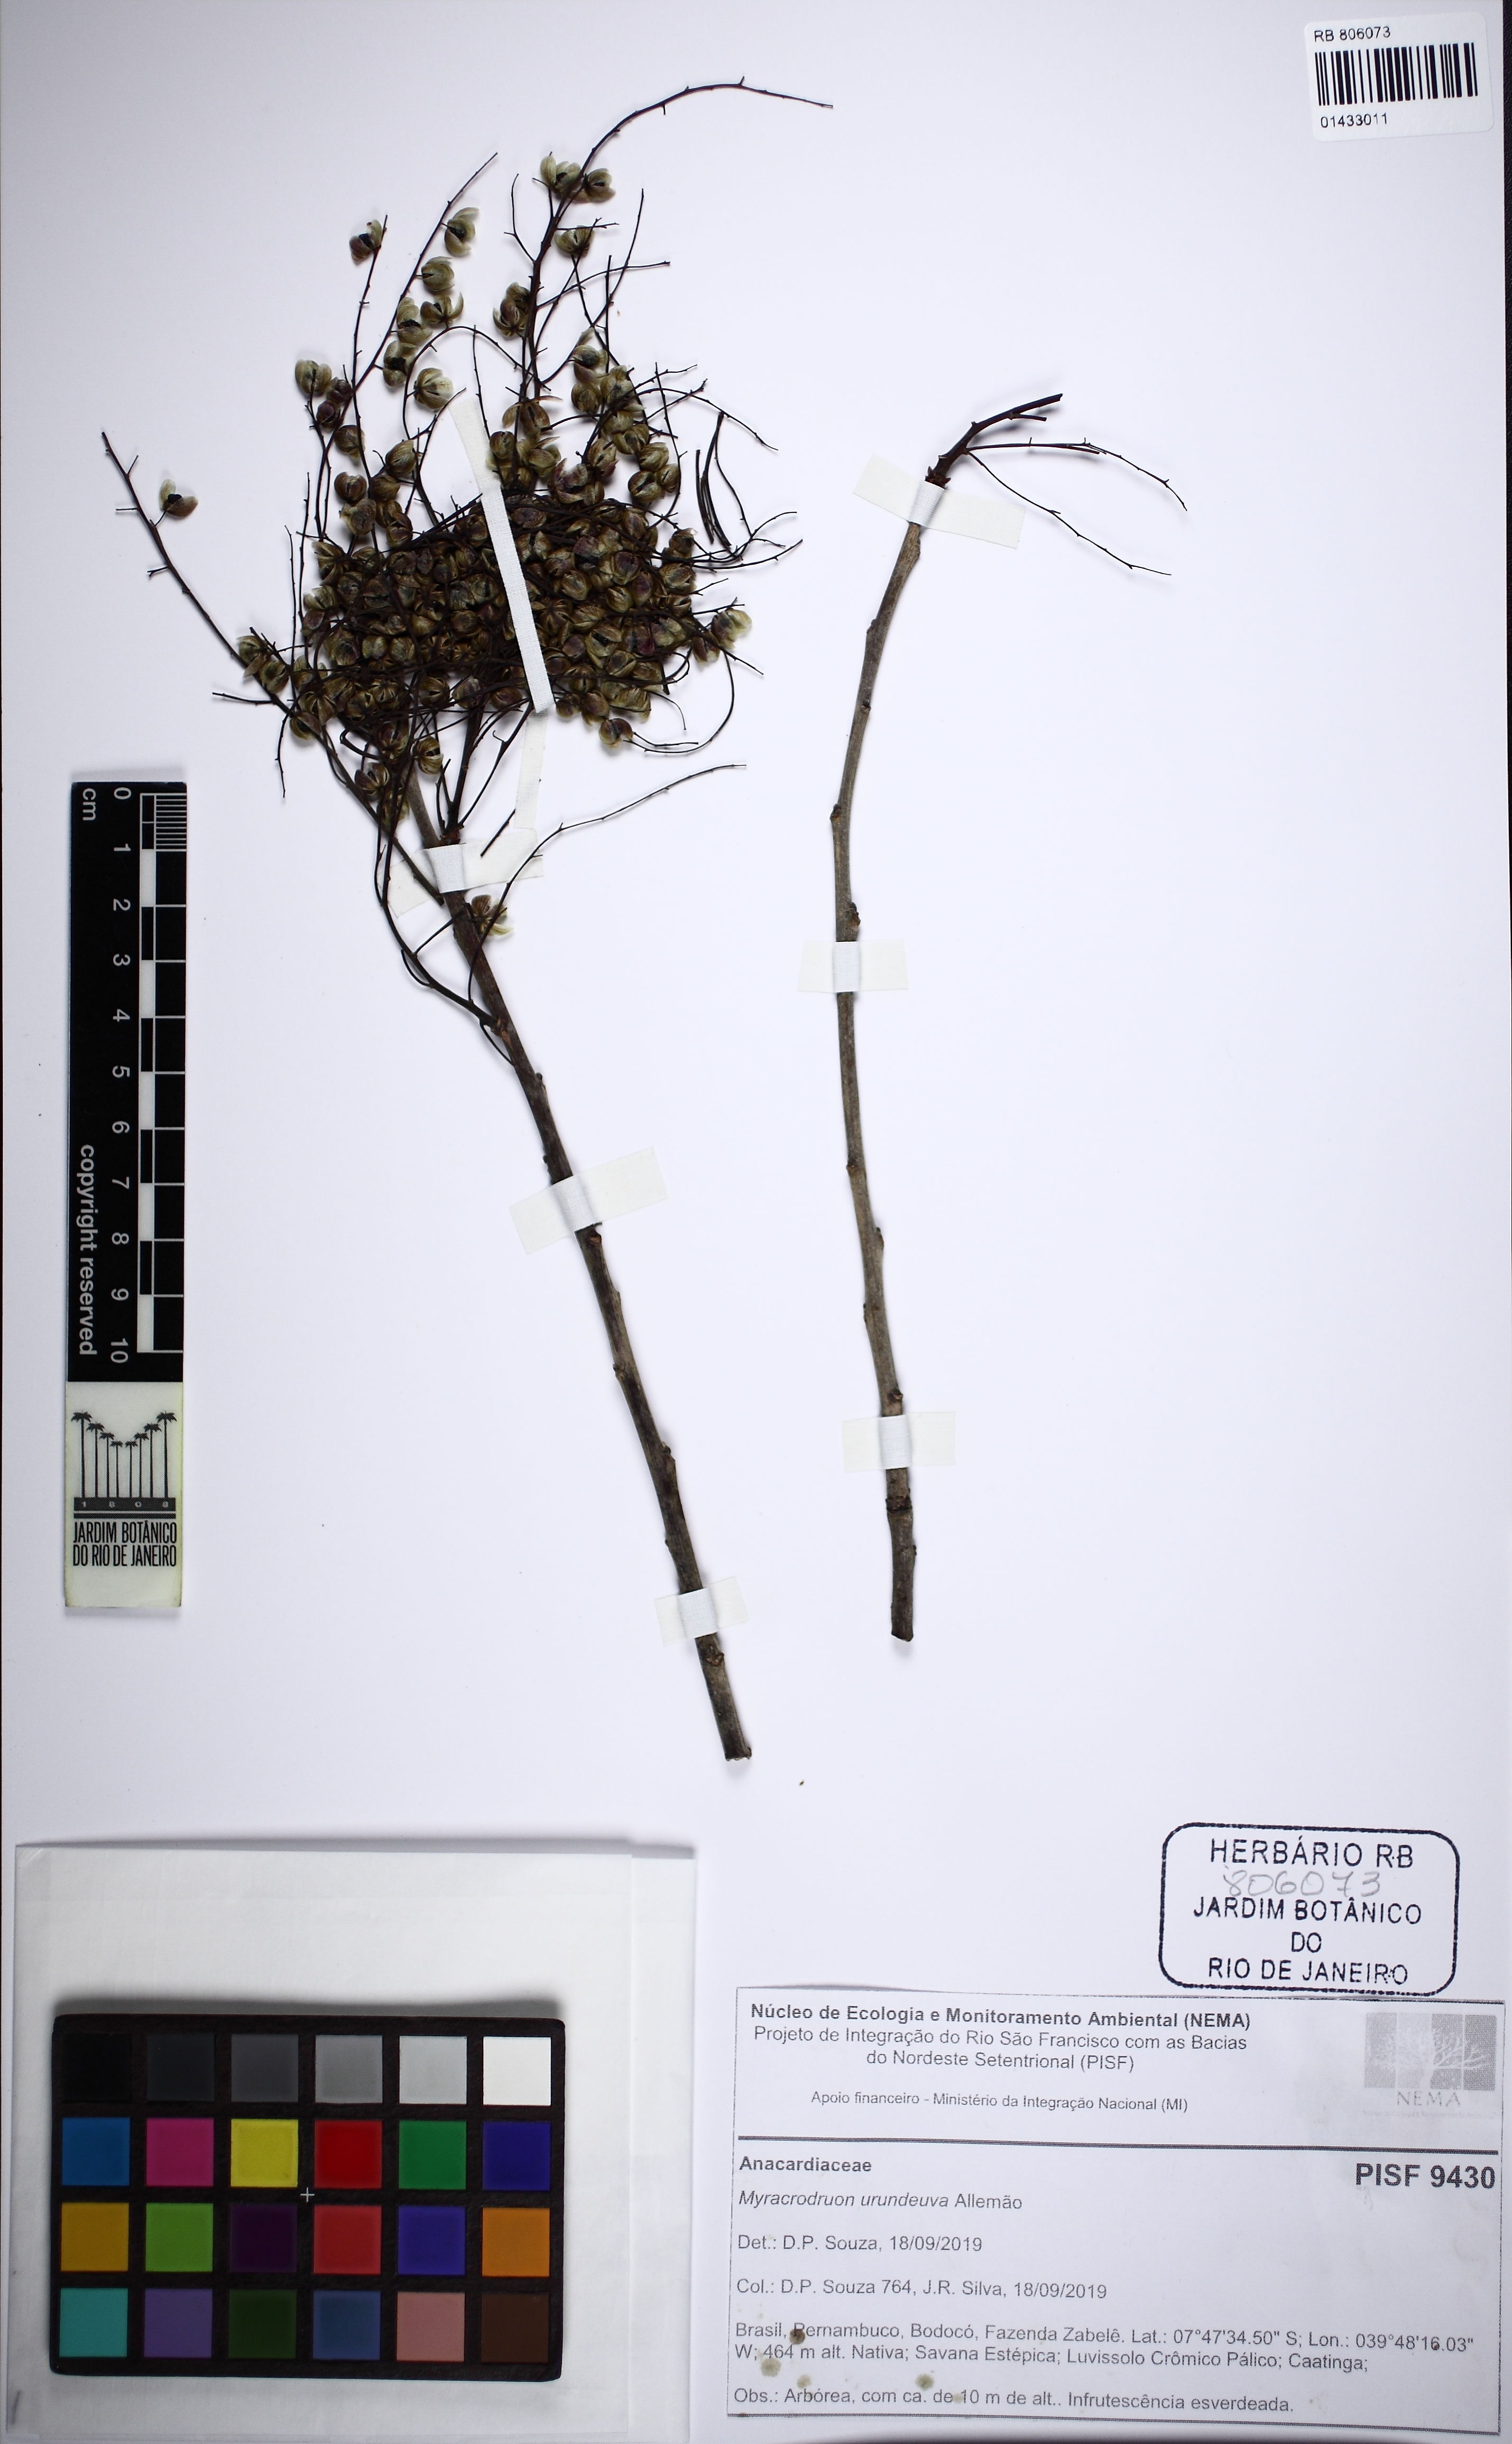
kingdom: Plantae
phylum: Tracheophyta
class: Magnoliopsida
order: Sapindales
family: Anacardiaceae
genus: Myracrodruon
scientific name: Myracrodruon urundeuva
